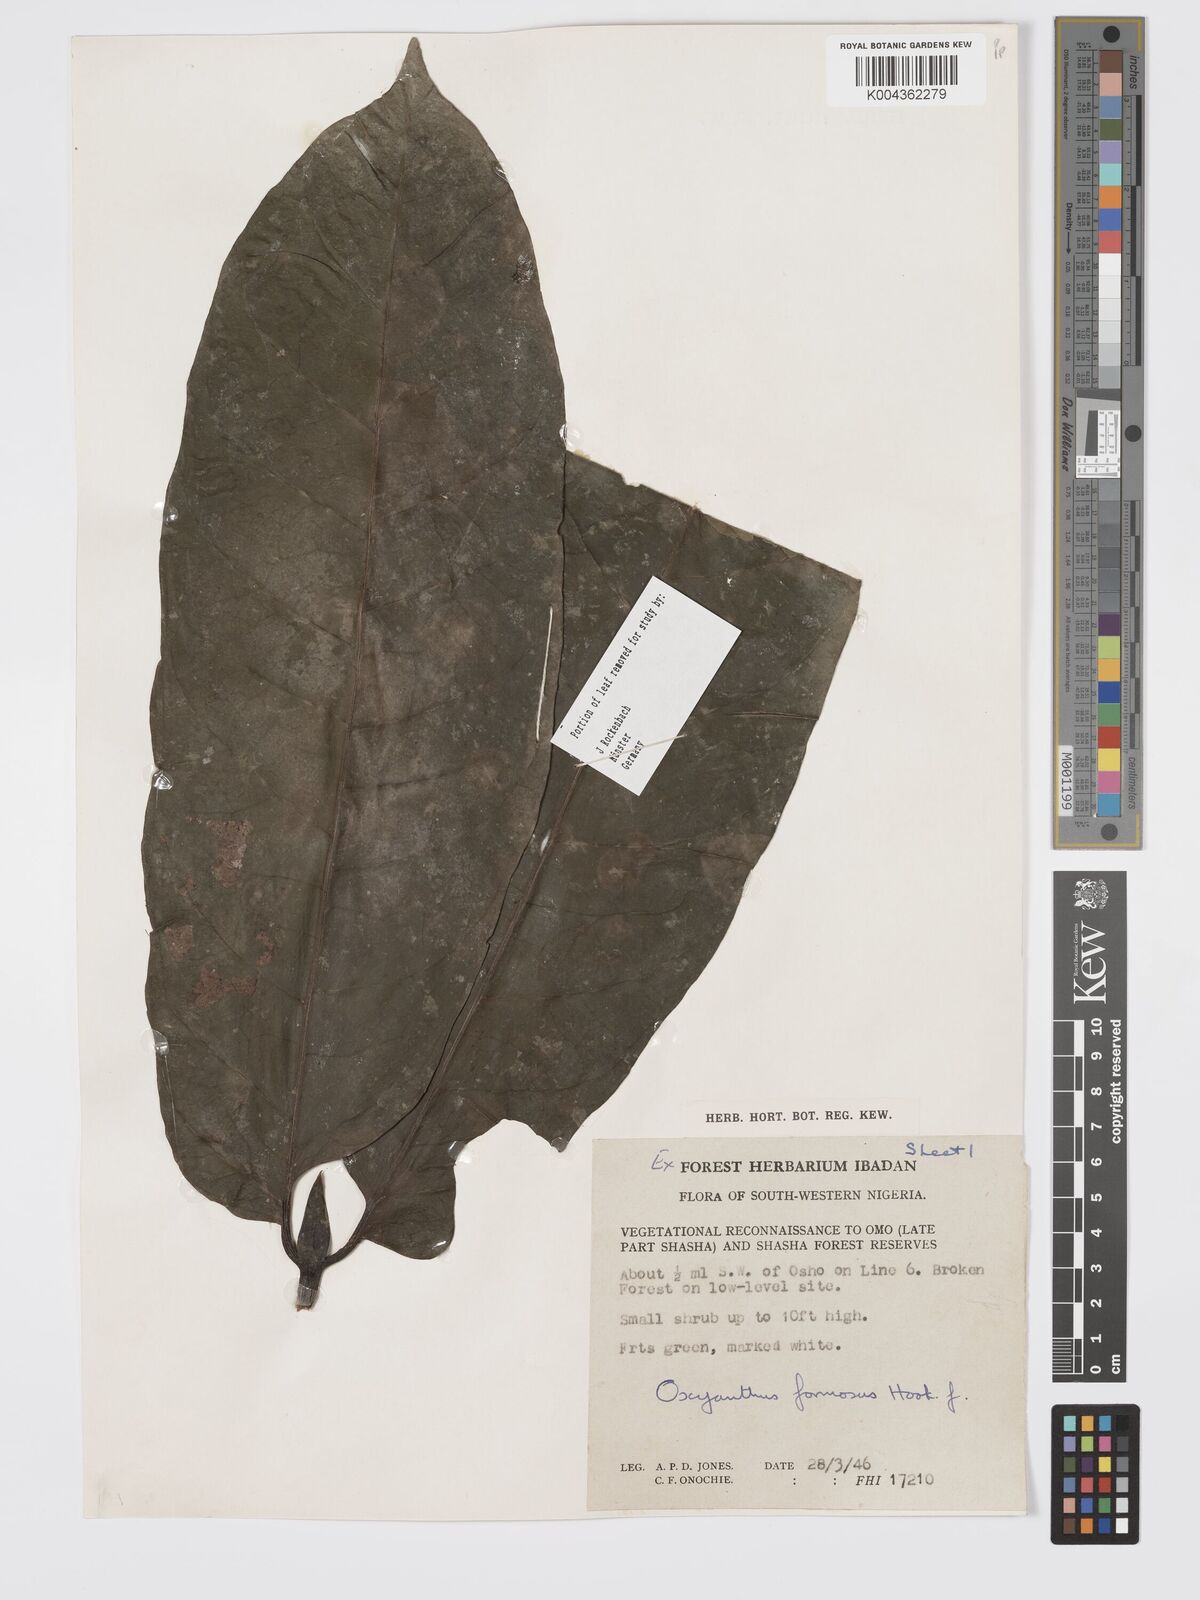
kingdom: Plantae
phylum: Tracheophyta
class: Magnoliopsida
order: Gentianales
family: Rubiaceae
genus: Oxyanthus
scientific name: Oxyanthus formosus
